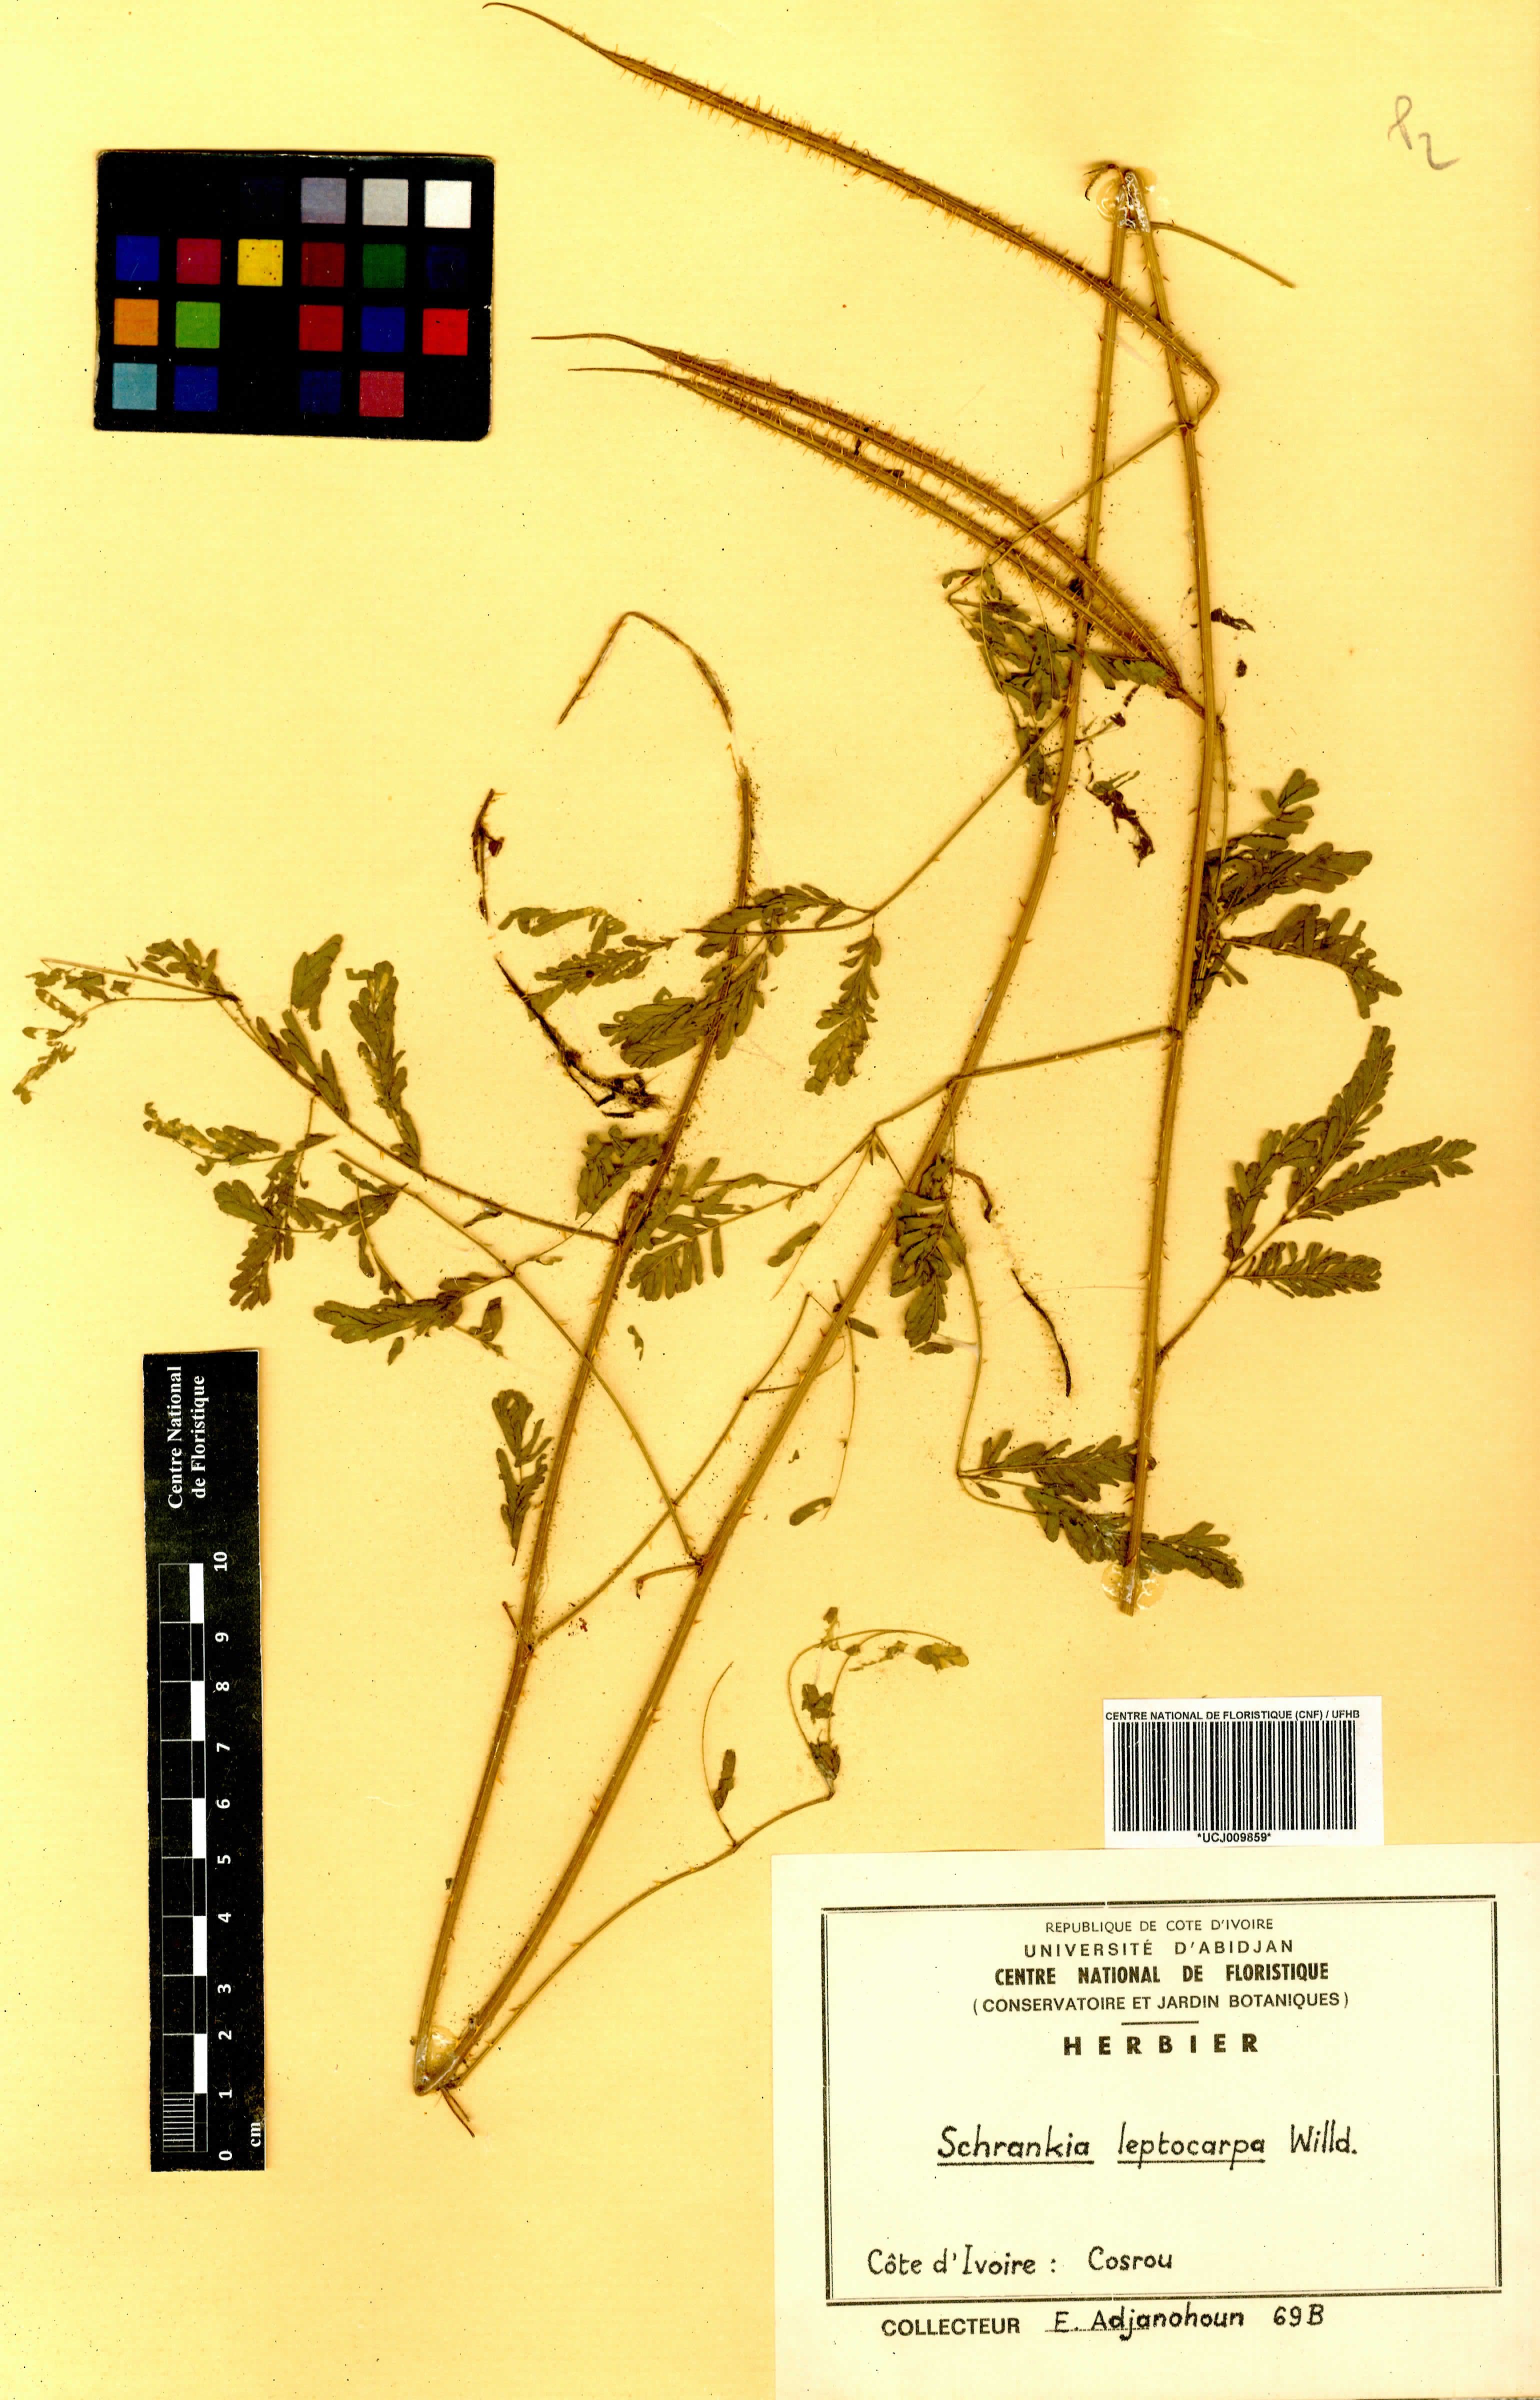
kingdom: Plantae
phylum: Tracheophyta
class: Magnoliopsida
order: Fabales
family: Fabaceae
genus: Mimosa
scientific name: Mimosa candollei
